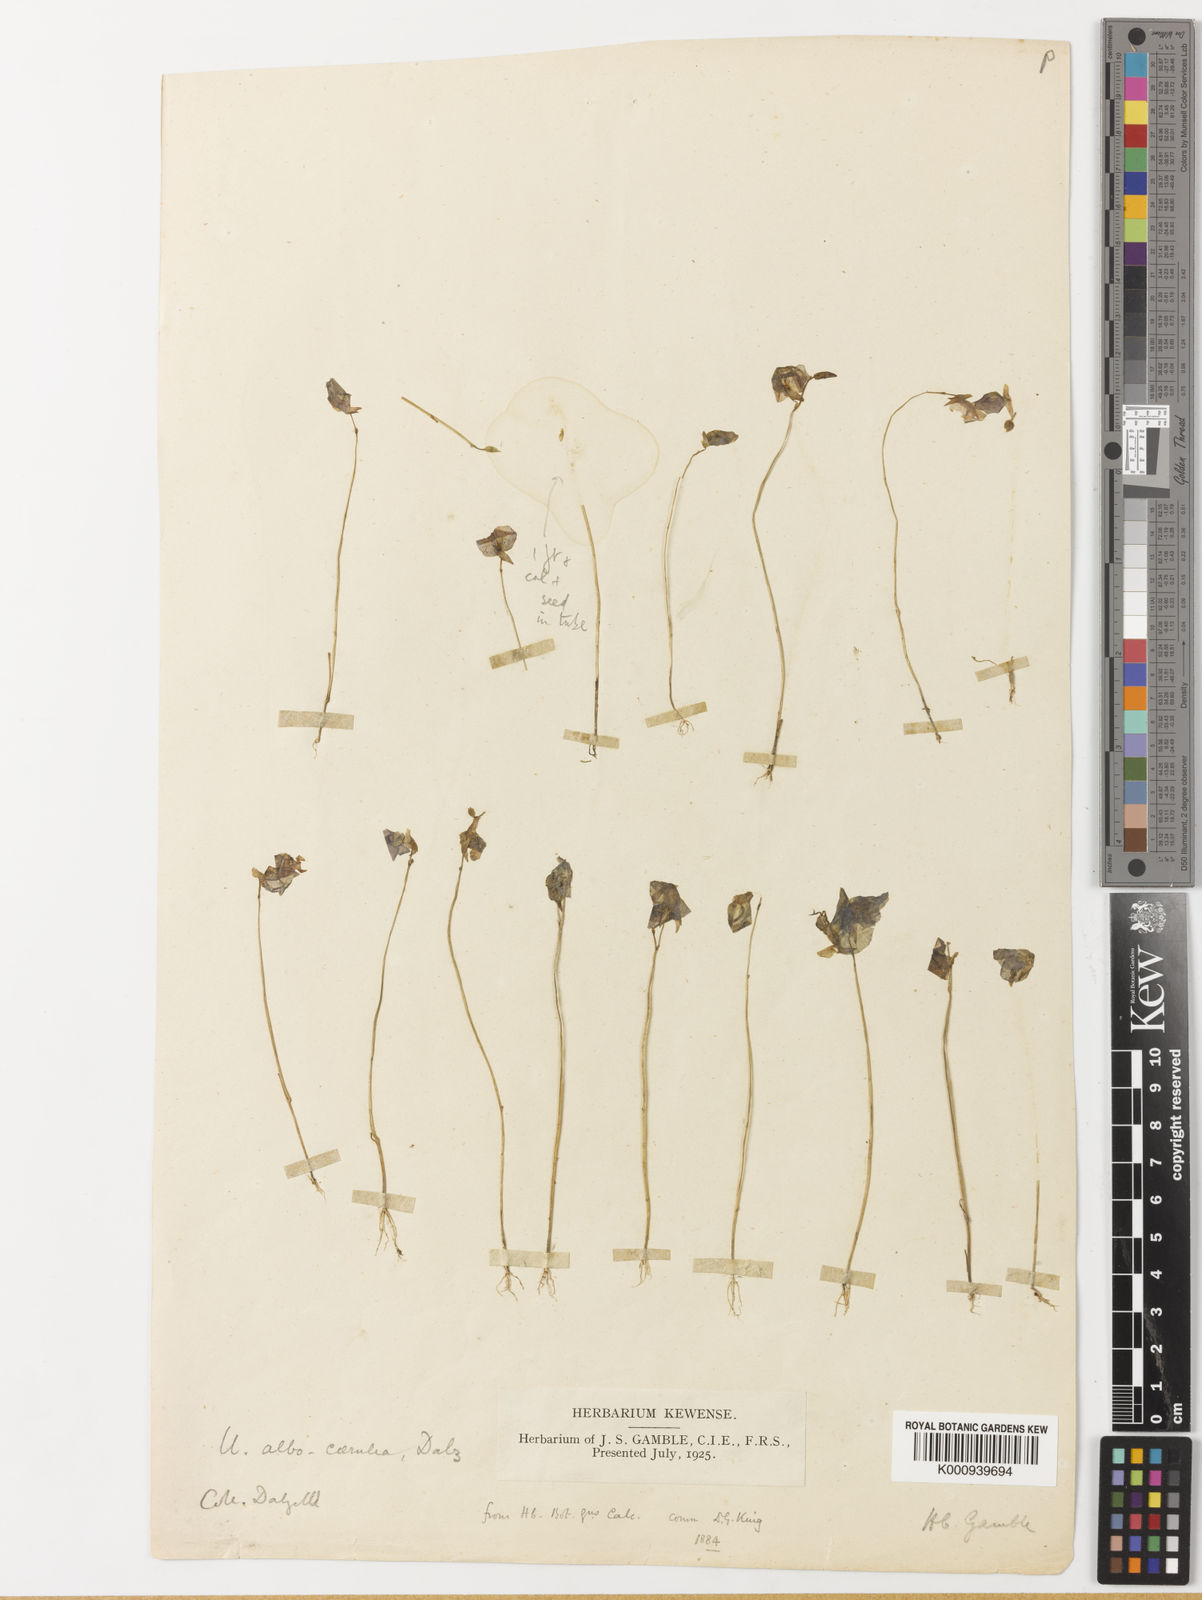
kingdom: Plantae
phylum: Tracheophyta
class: Magnoliopsida
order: Lamiales
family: Lentibulariaceae
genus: Utricularia
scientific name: Utricularia
